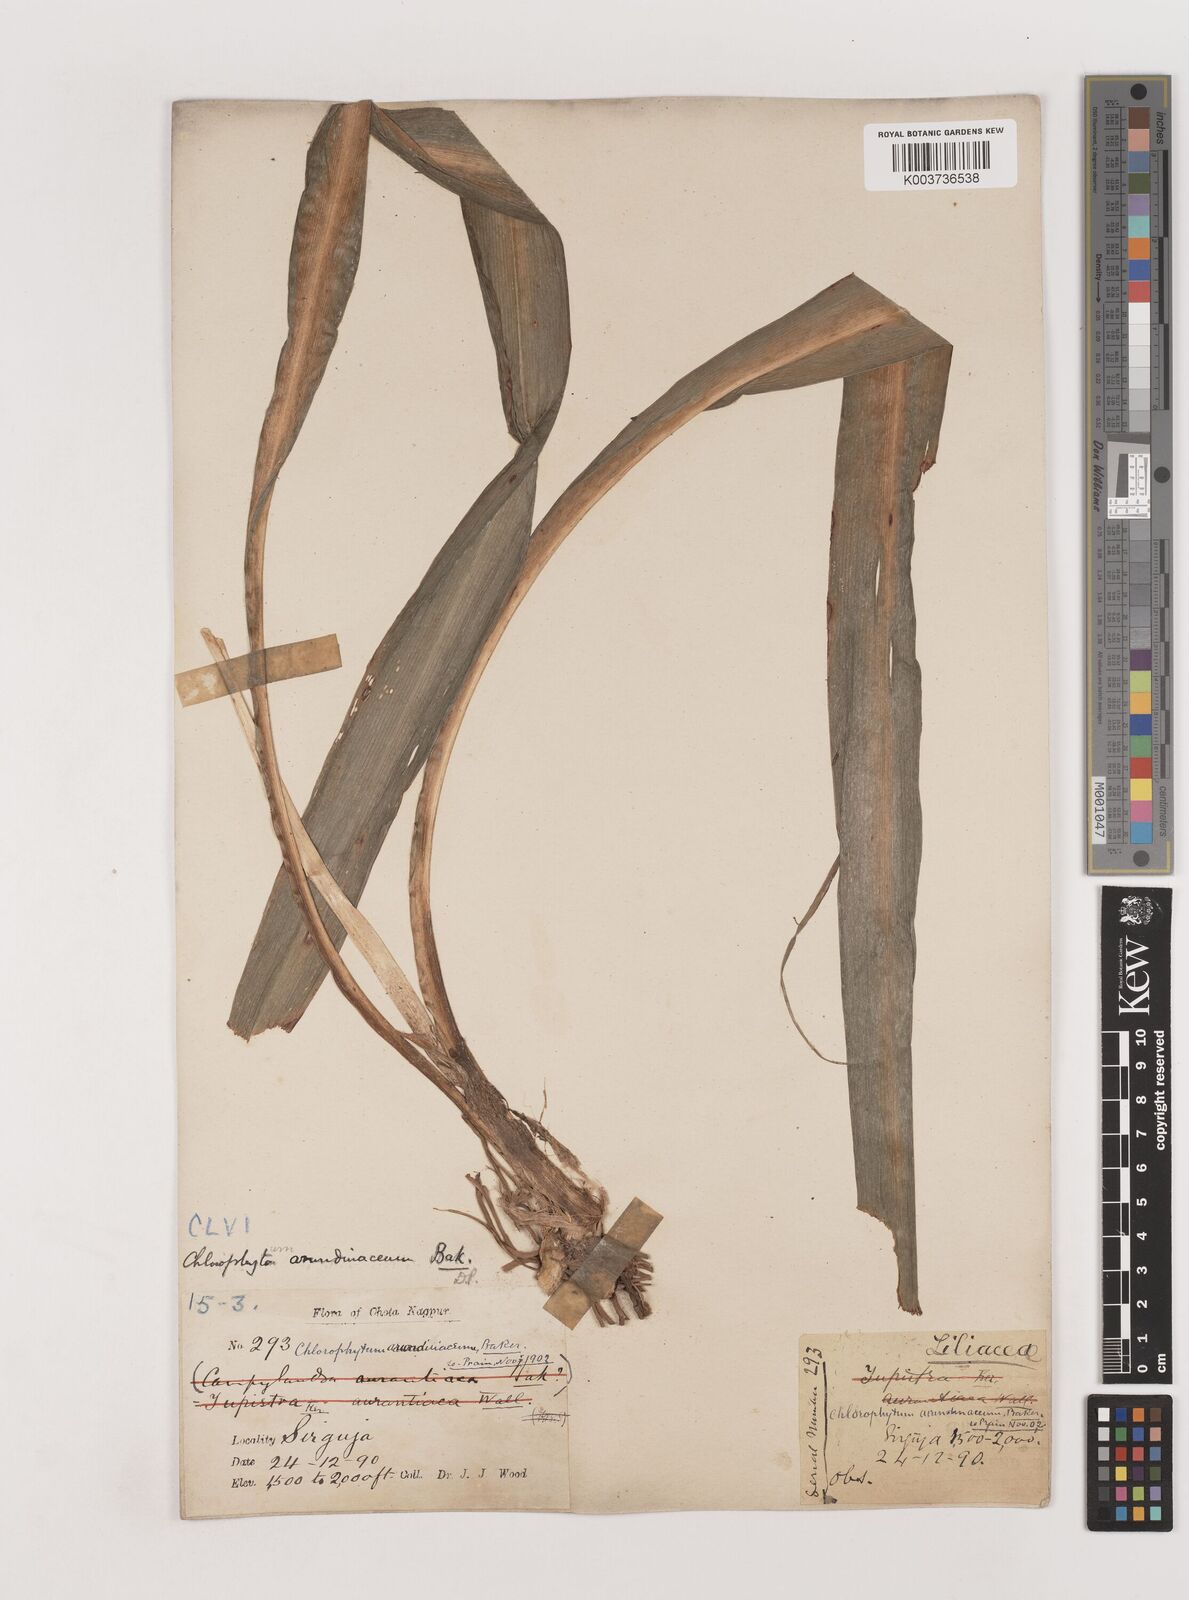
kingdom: Plantae
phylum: Tracheophyta
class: Liliopsida
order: Asparagales
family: Asparagaceae
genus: Chlorophytum
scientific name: Chlorophytum arundinaceum
